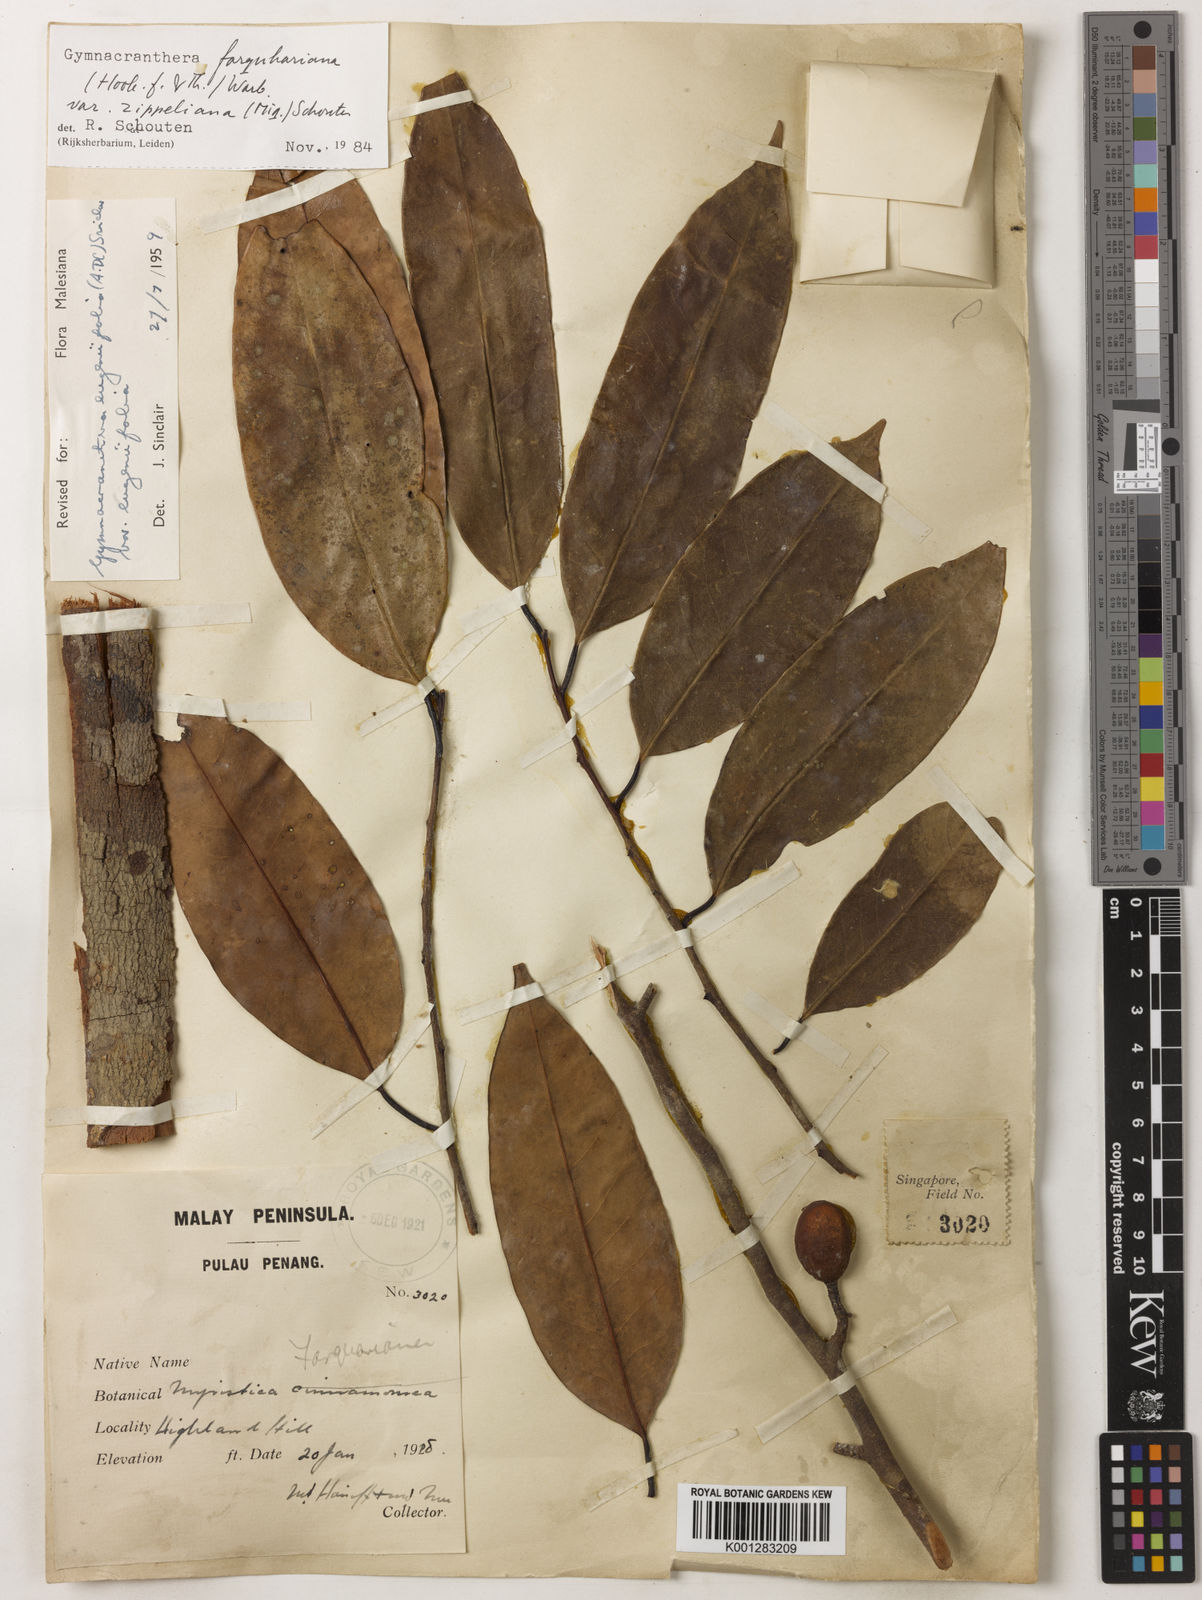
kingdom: Plantae
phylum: Tracheophyta
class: Magnoliopsida
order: Magnoliales
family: Myristicaceae
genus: Gymnacranthera
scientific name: Gymnacranthera farquhariana
